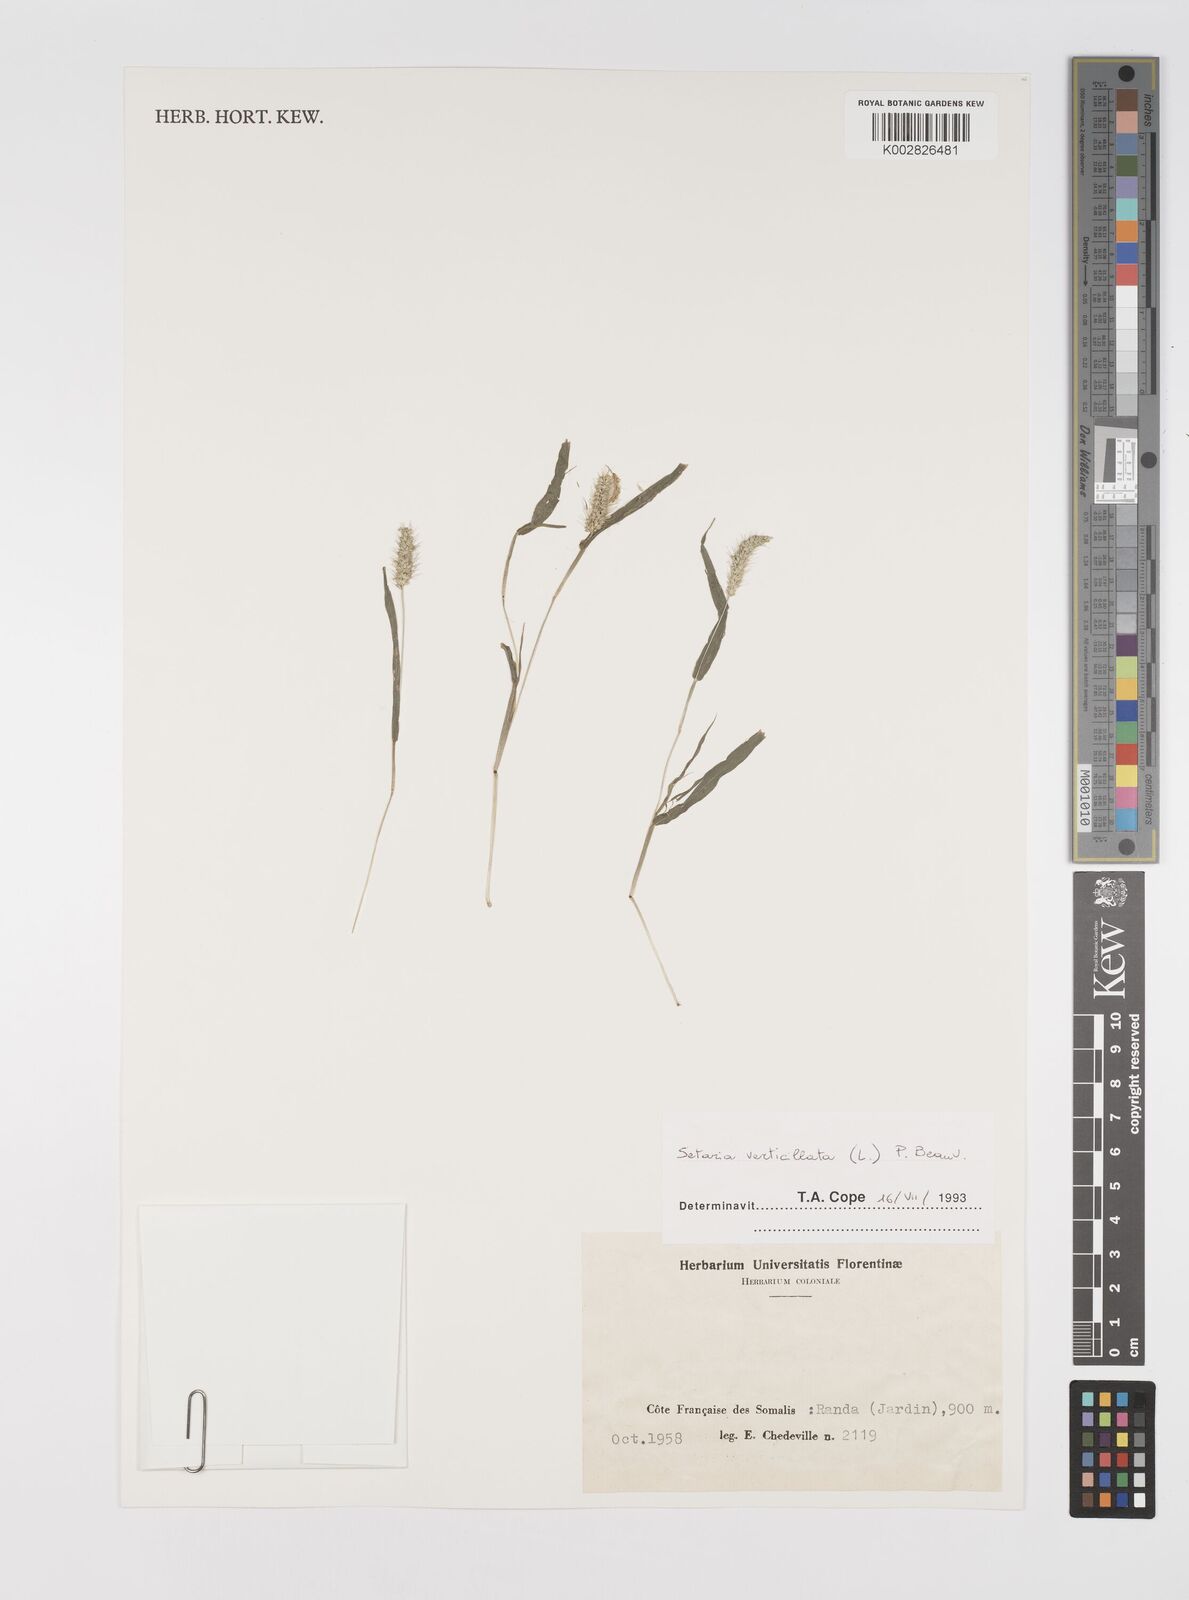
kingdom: Plantae
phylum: Tracheophyta
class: Liliopsida
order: Poales
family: Poaceae
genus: Setaria
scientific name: Setaria verticillata
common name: Hooked bristlegrass
